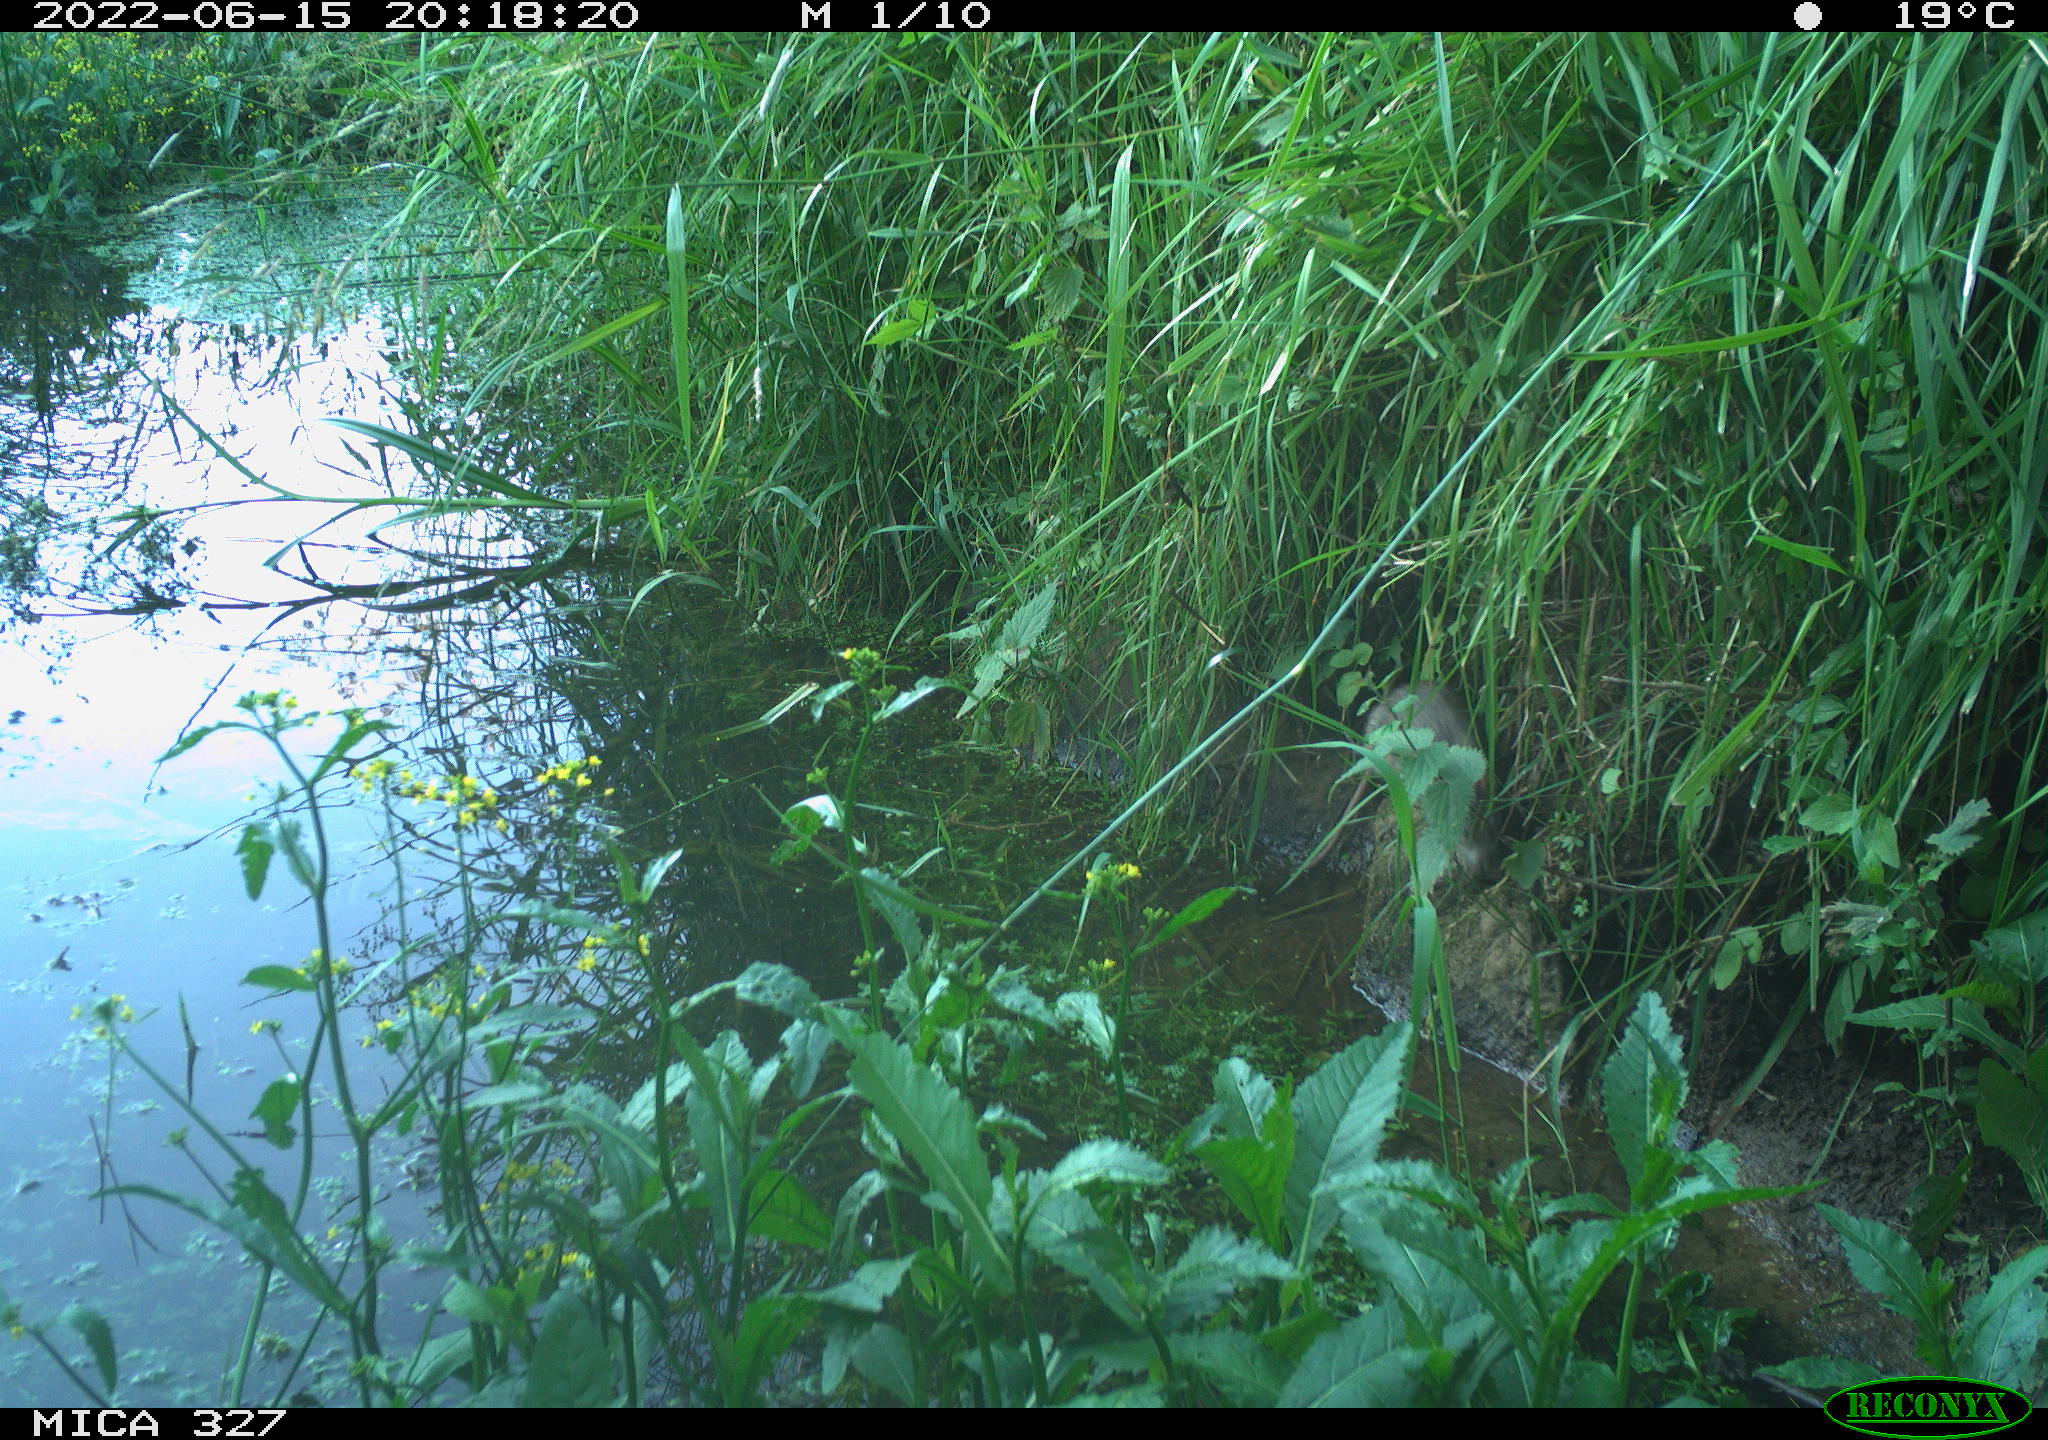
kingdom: Animalia
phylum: Chordata
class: Mammalia
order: Rodentia
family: Muridae
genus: Rattus
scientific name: Rattus norvegicus
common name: Brown rat
